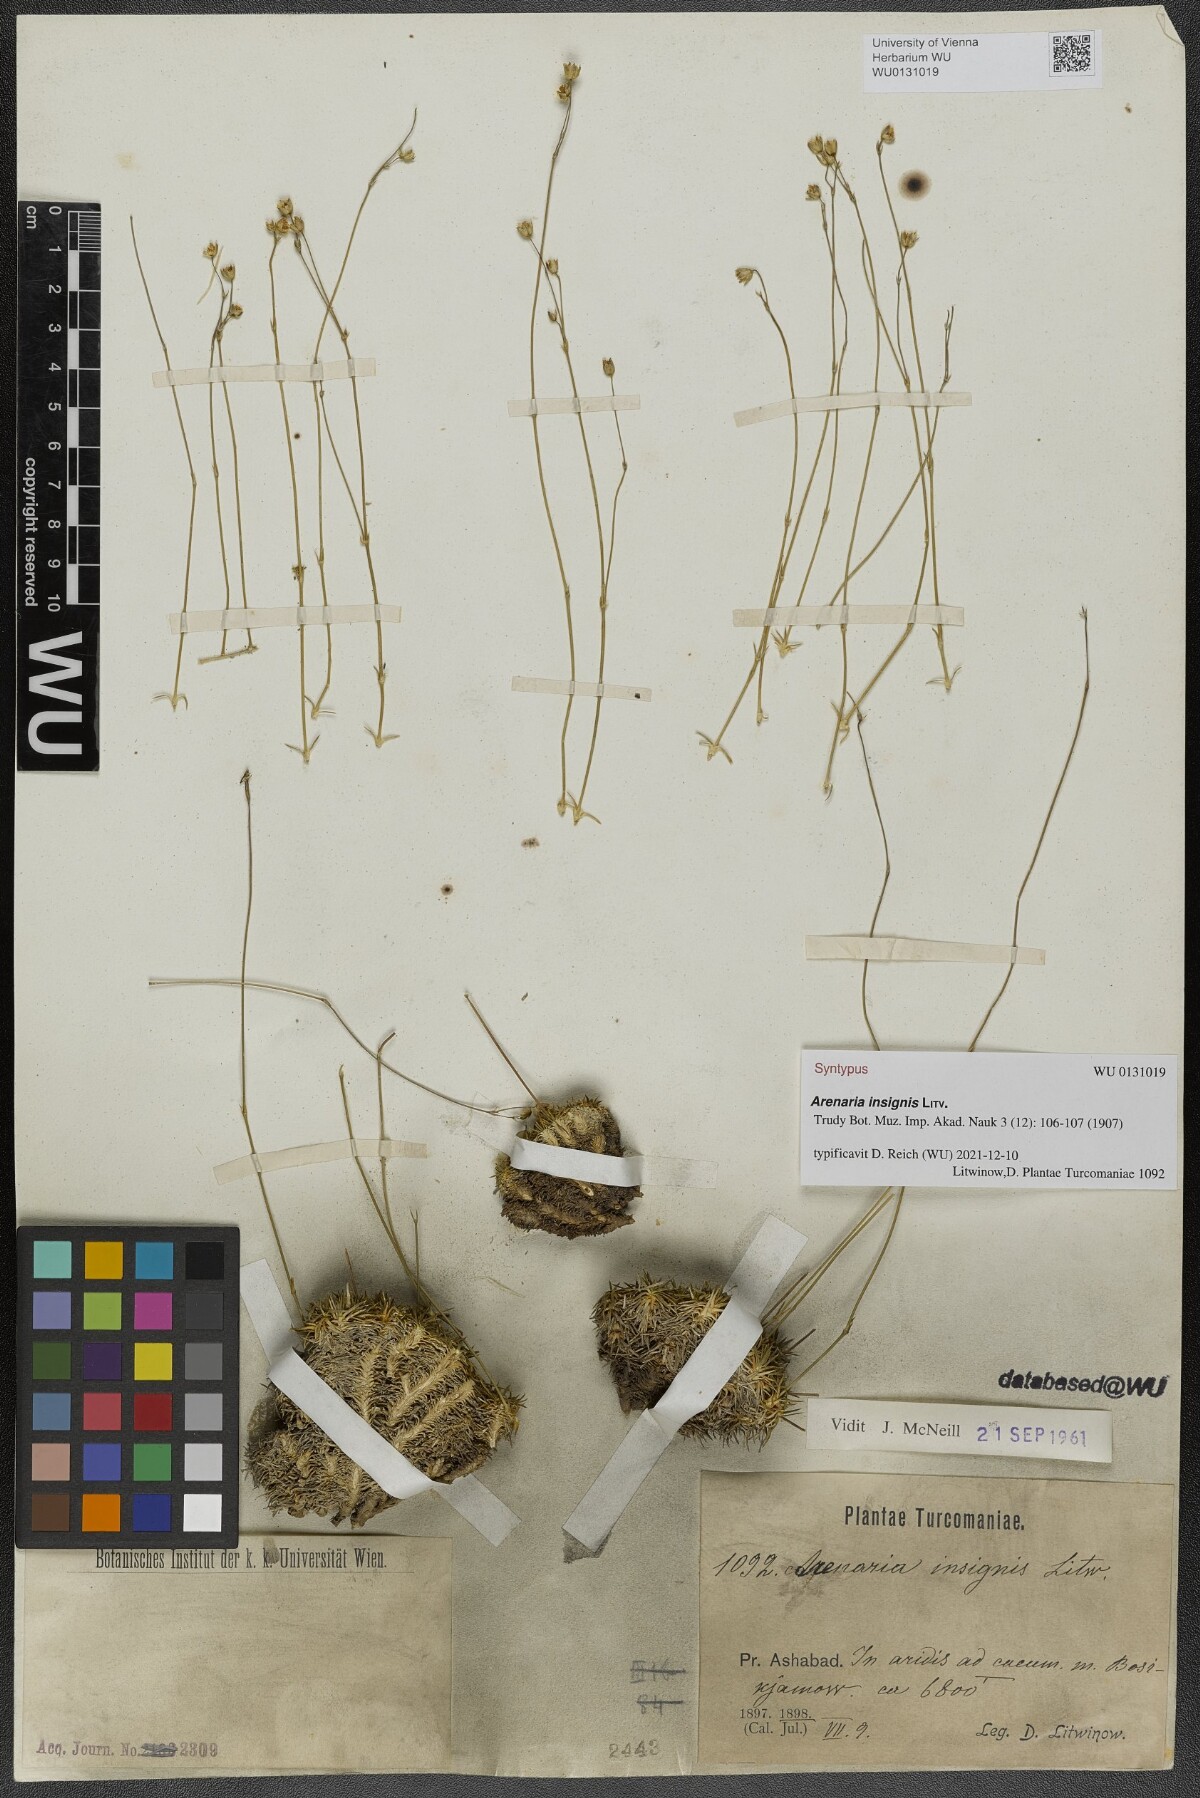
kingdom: Plantae
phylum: Tracheophyta
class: Magnoliopsida
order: Caryophyllales
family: Caryophyllaceae
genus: Eremogone
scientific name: Eremogone insignis
